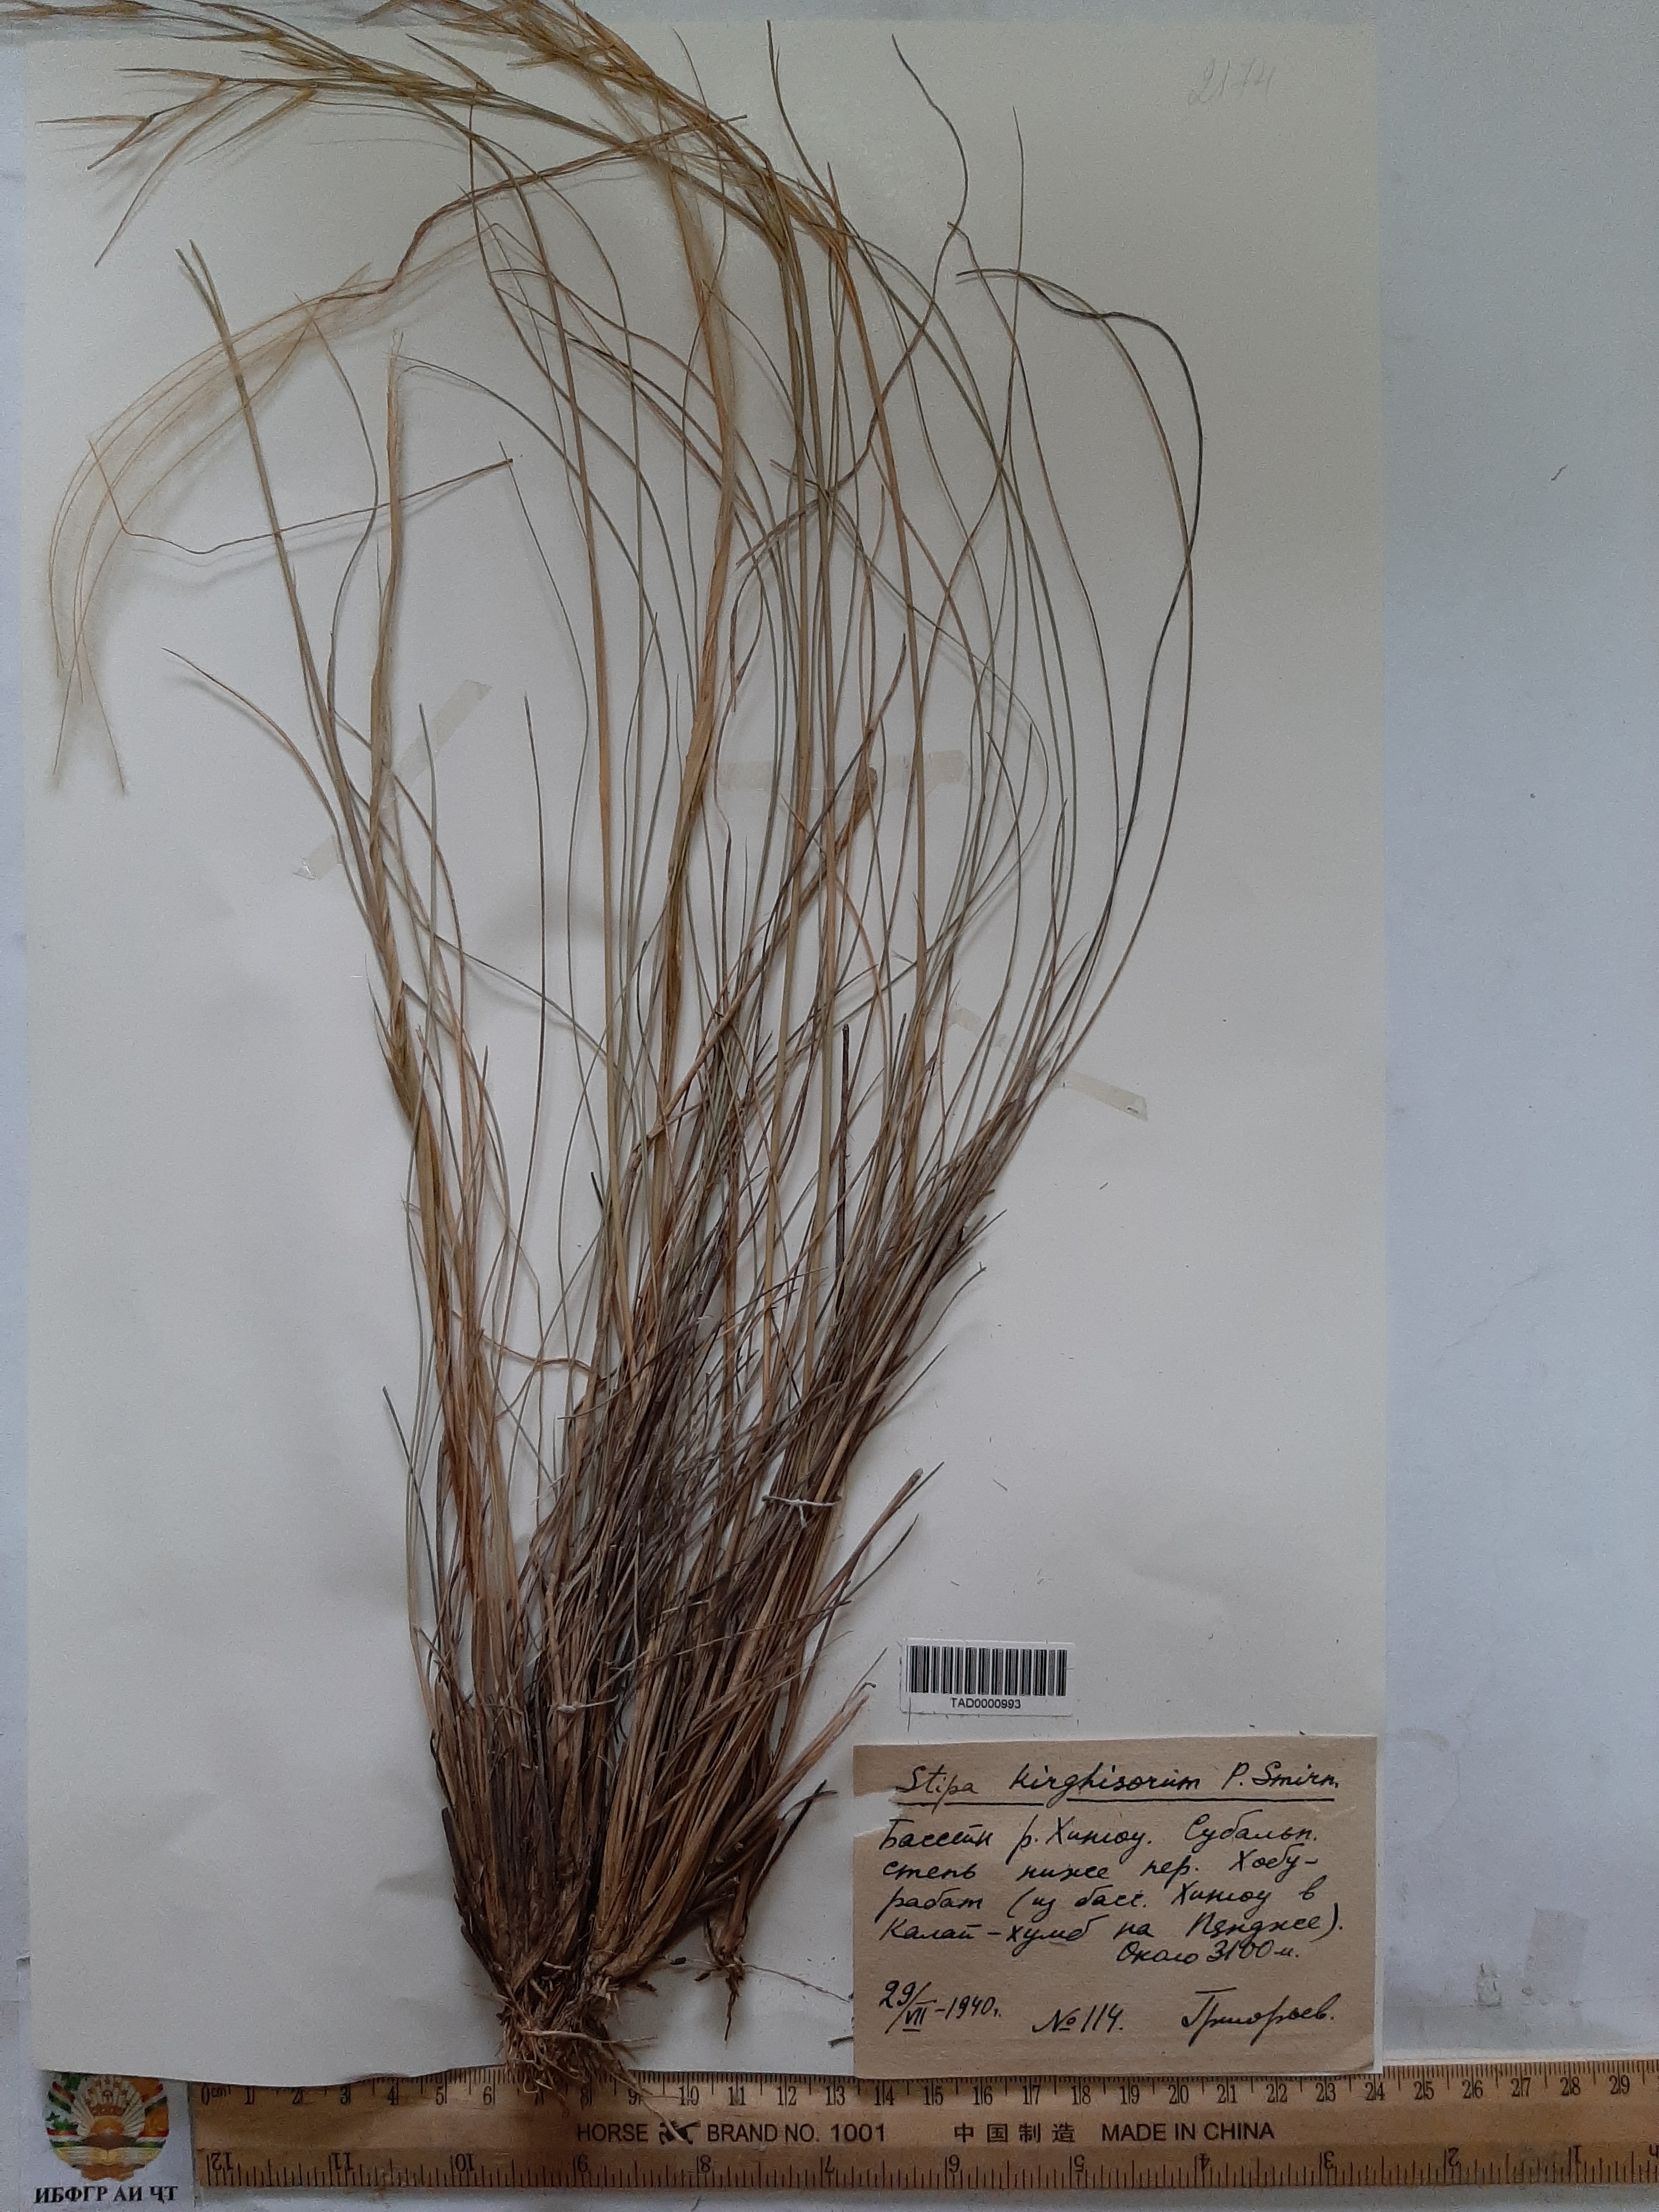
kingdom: Plantae
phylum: Tracheophyta
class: Liliopsida
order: Poales
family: Poaceae
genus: Stipa
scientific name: Stipa kirghisorum
